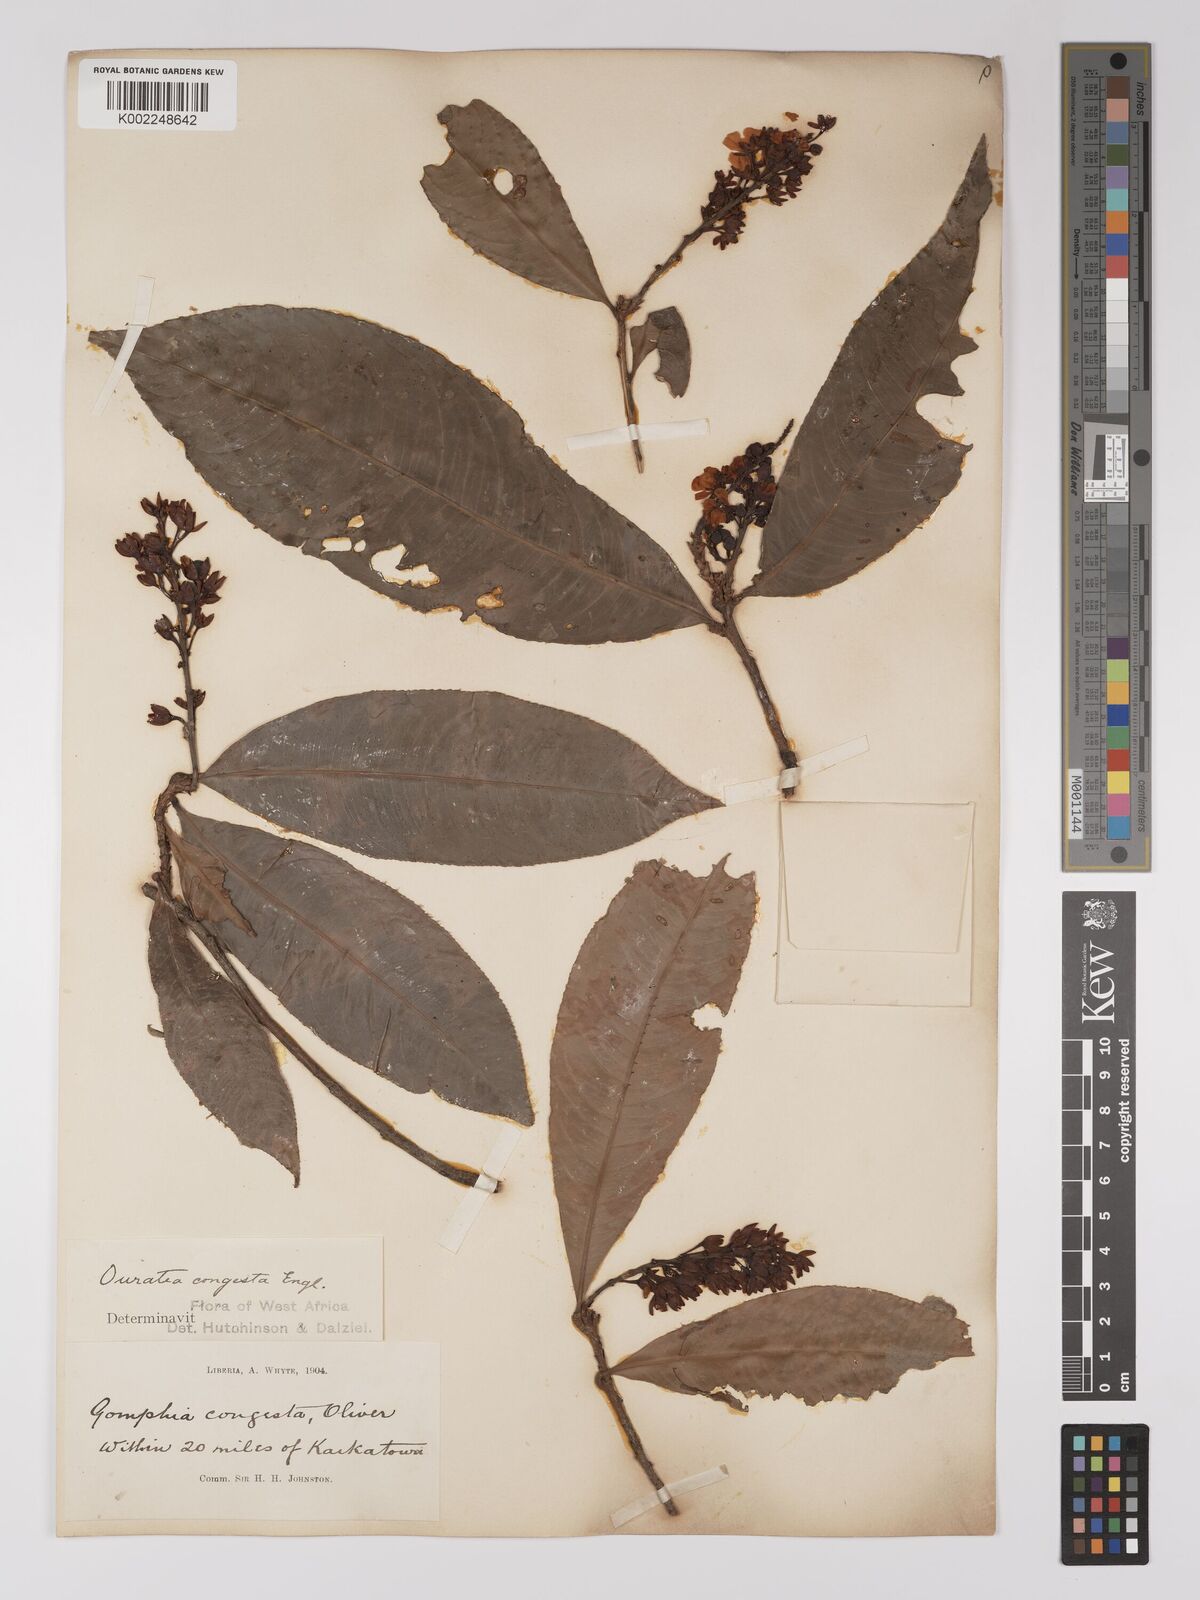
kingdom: Plantae
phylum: Tracheophyta
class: Magnoliopsida
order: Malpighiales
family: Ochnaceae
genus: Campylospermum
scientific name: Campylospermum congestum
